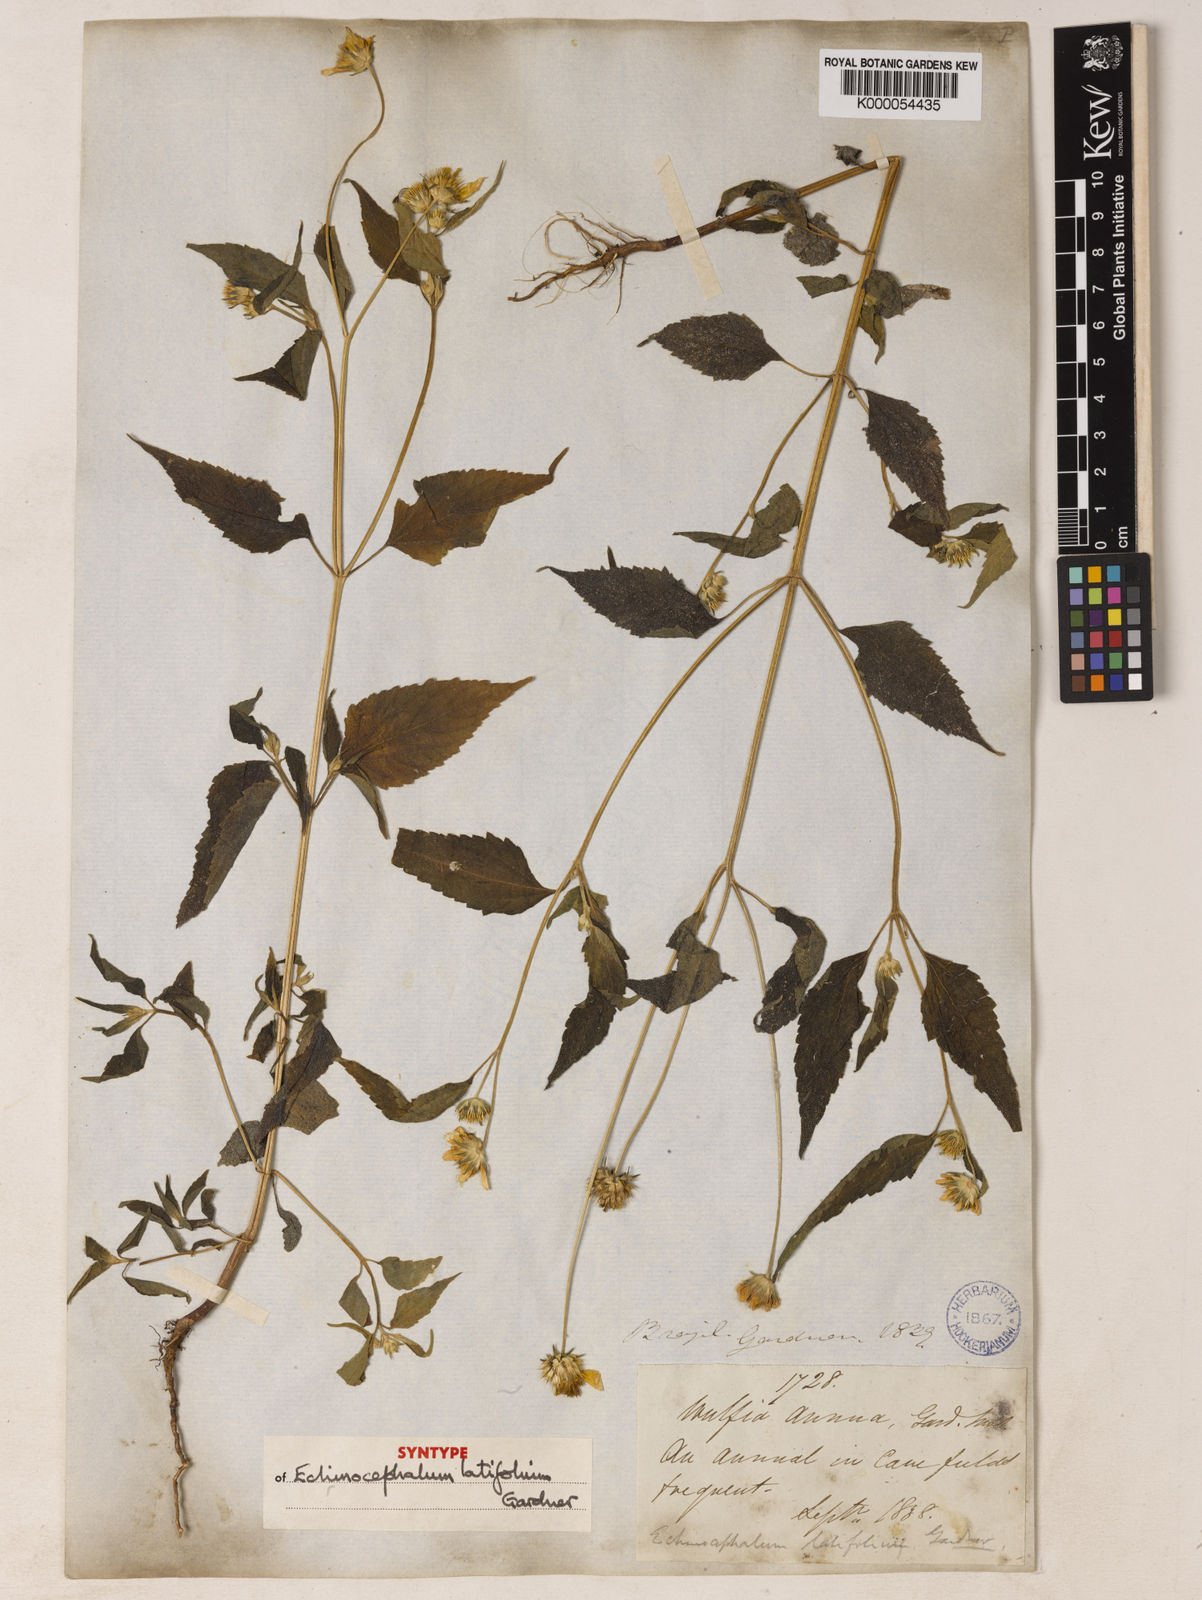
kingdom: Plantae
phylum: Tracheophyta
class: Magnoliopsida
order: Asterales
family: Asteraceae
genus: Echinocephalum
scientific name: Echinocephalum latifolium
